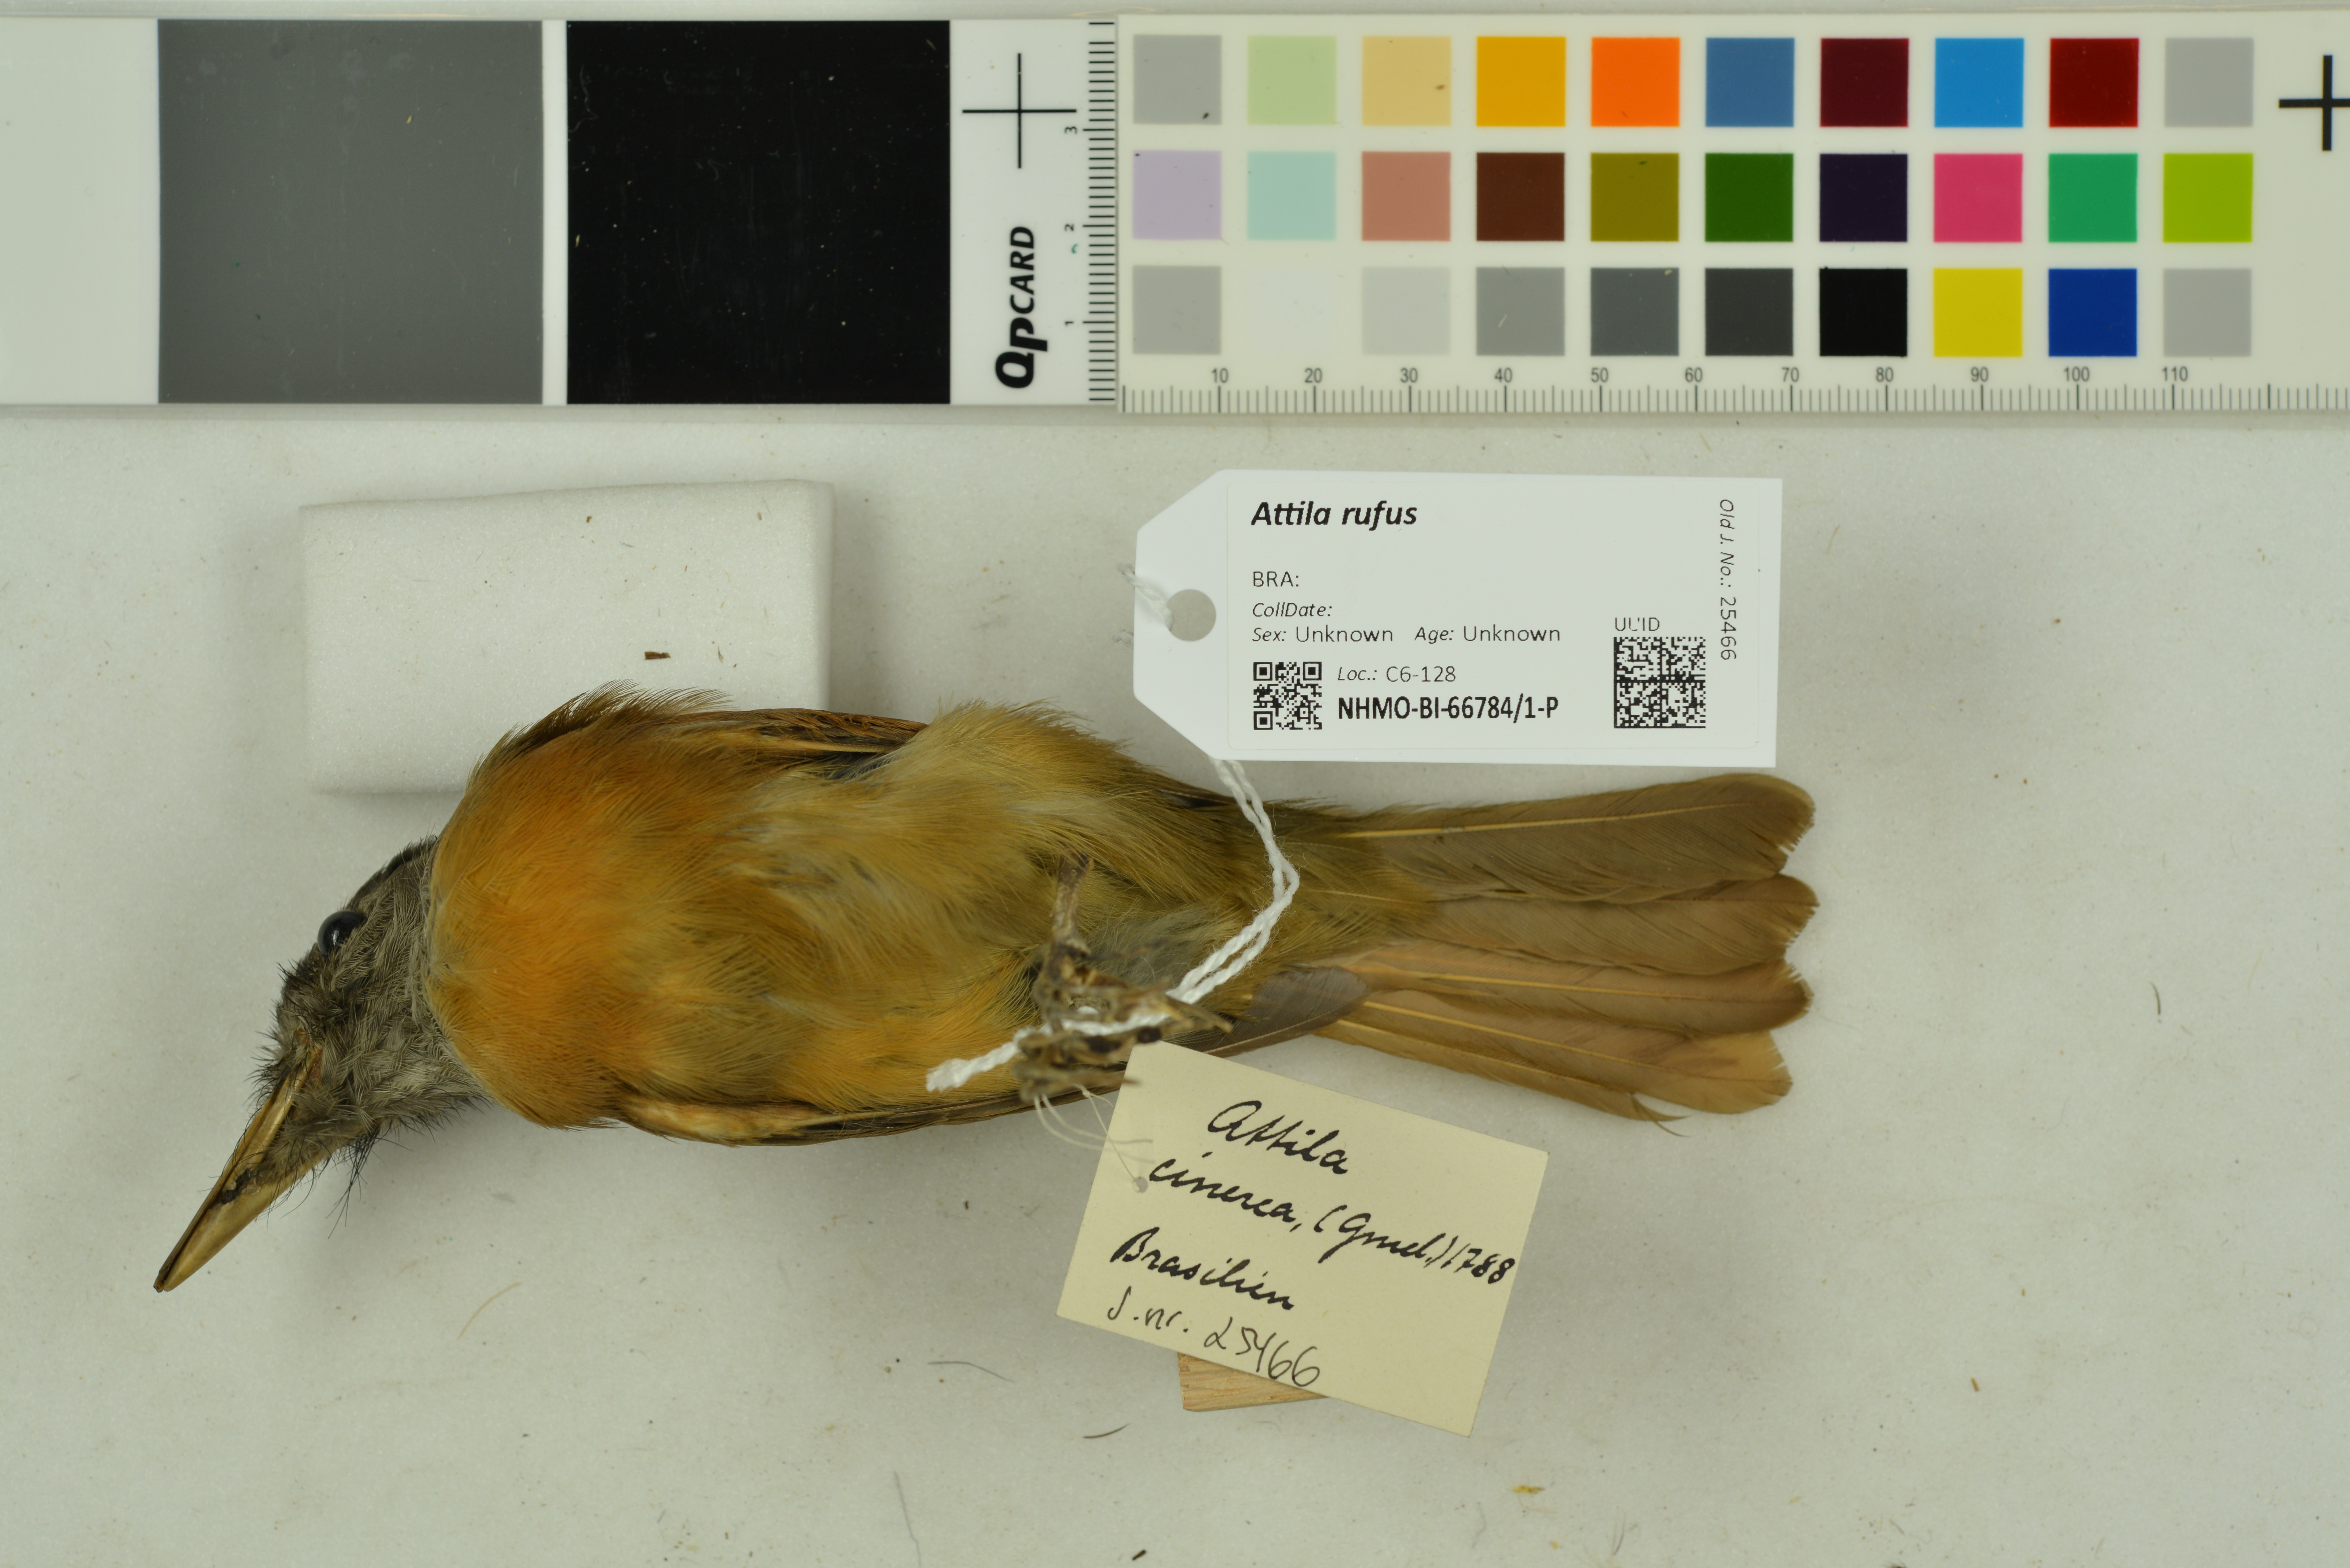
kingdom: Animalia
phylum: Chordata
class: Aves
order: Passeriformes
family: Tyrannidae
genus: Attila
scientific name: Attila rufus
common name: Grey-hooded attila
